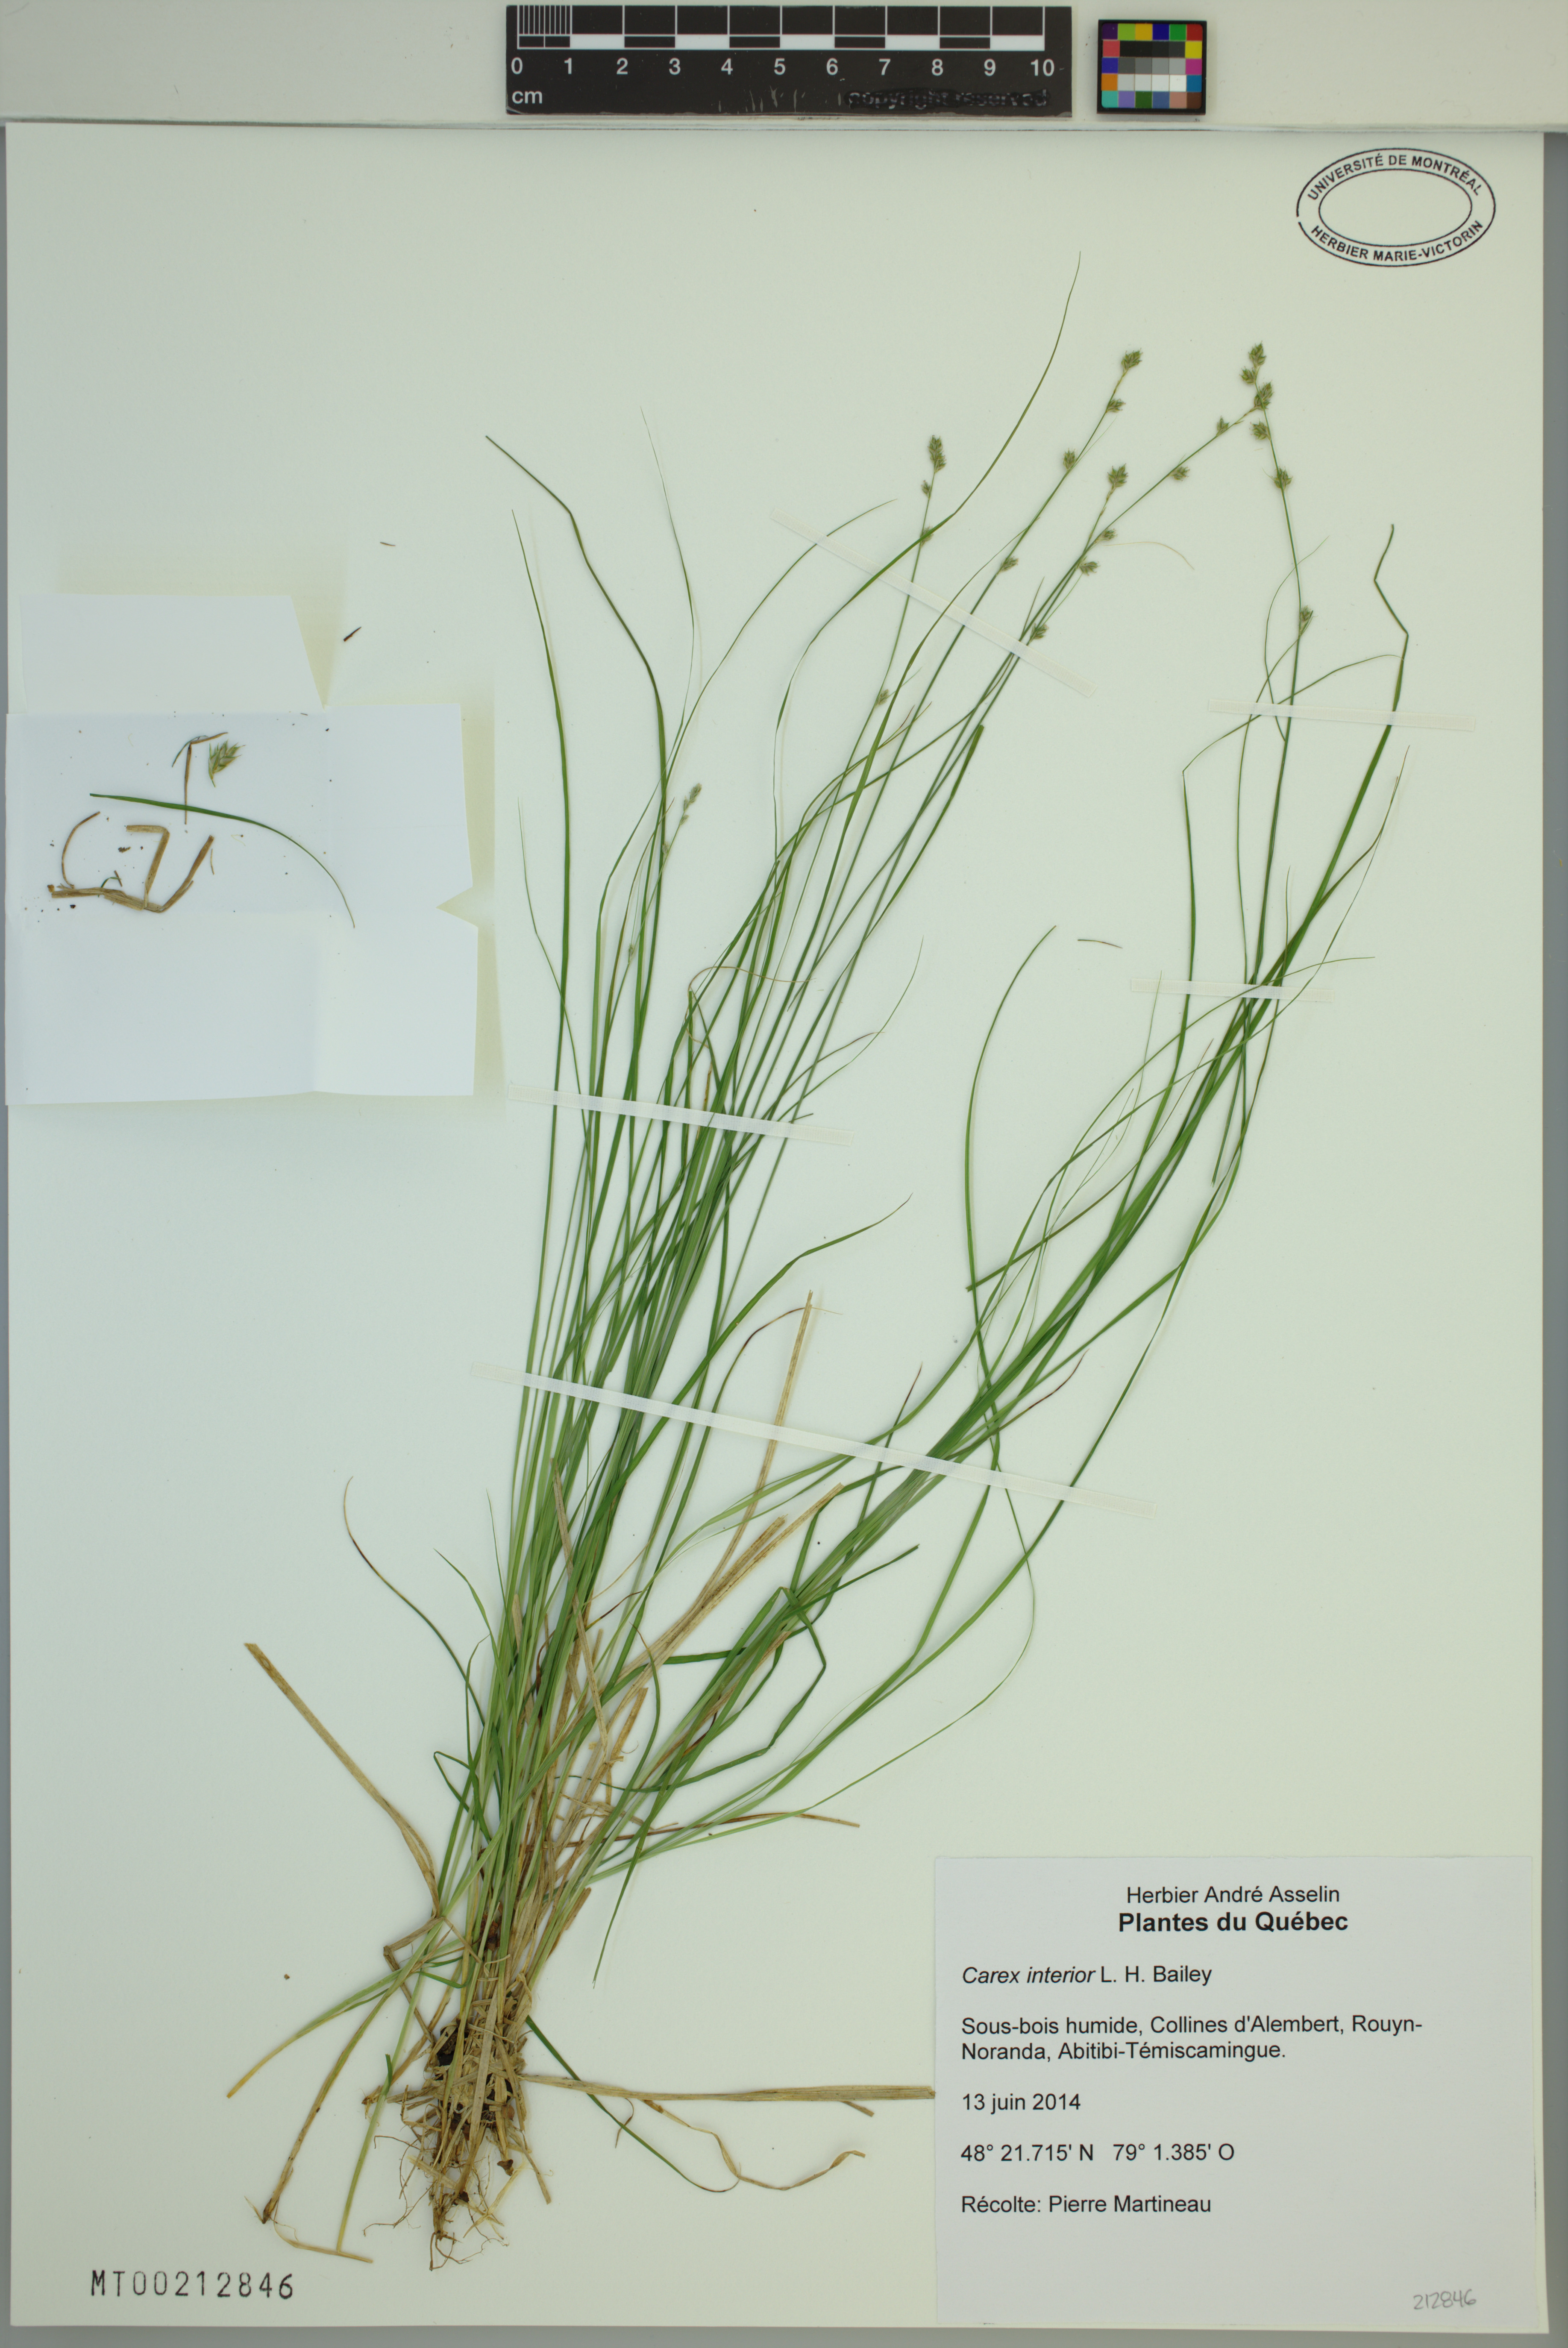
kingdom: Plantae
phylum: Tracheophyta
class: Liliopsida
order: Poales
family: Cyperaceae
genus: Carex
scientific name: Carex interior
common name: Inland sedge
